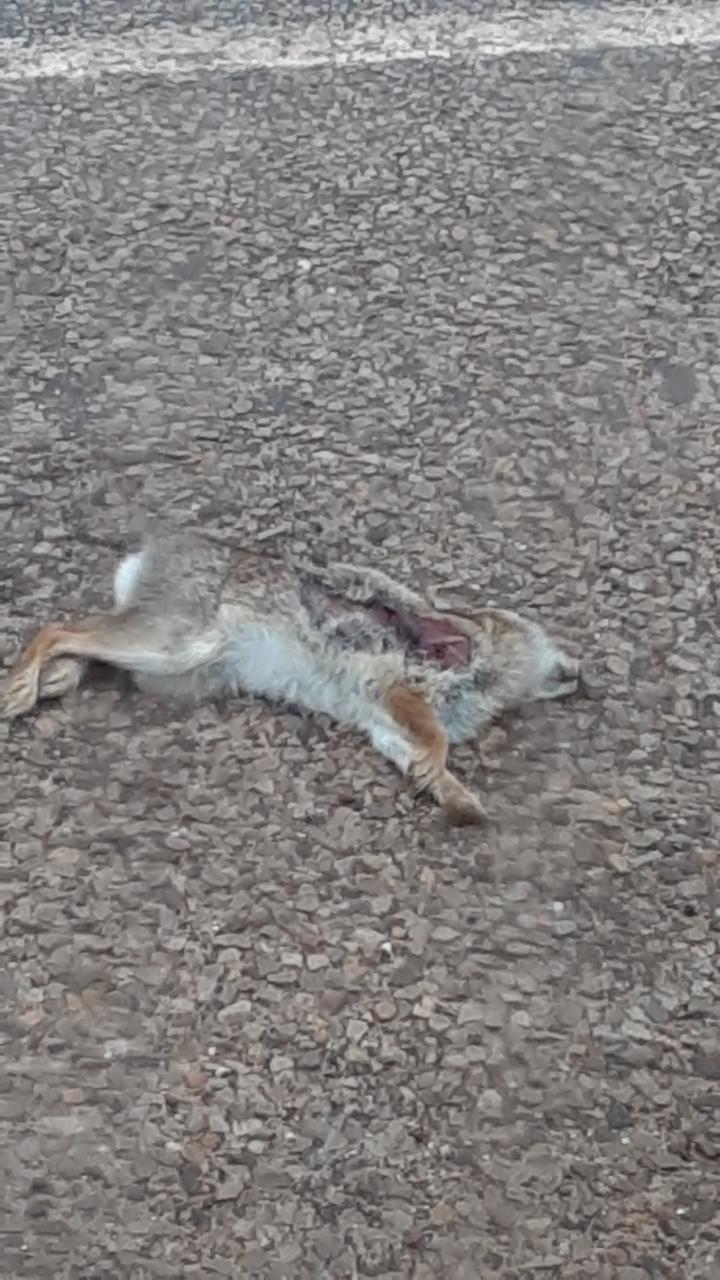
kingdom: Animalia
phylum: Chordata
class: Mammalia
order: Lagomorpha
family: Leporidae
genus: Sylvilagus
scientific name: Sylvilagus
